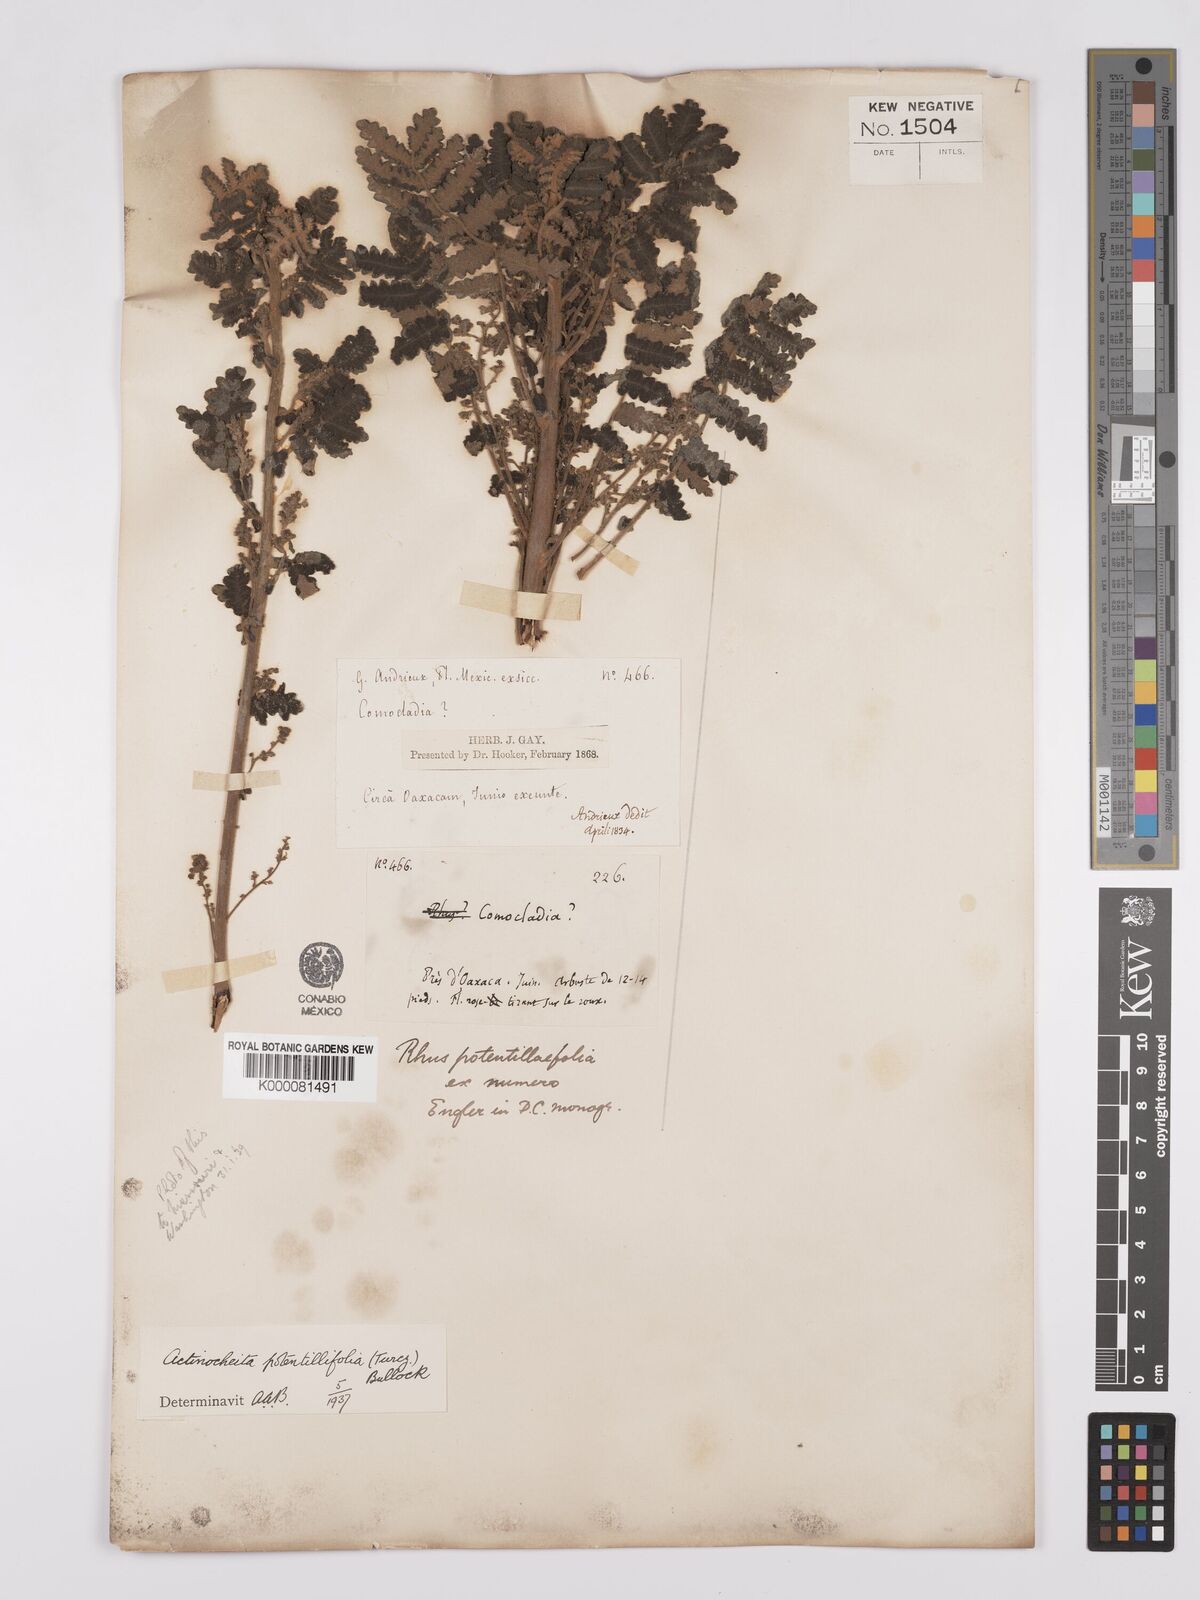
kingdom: Plantae
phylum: Tracheophyta
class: Magnoliopsida
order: Sapindales
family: Anacardiaceae
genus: Actinocheita
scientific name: Actinocheita filicina
